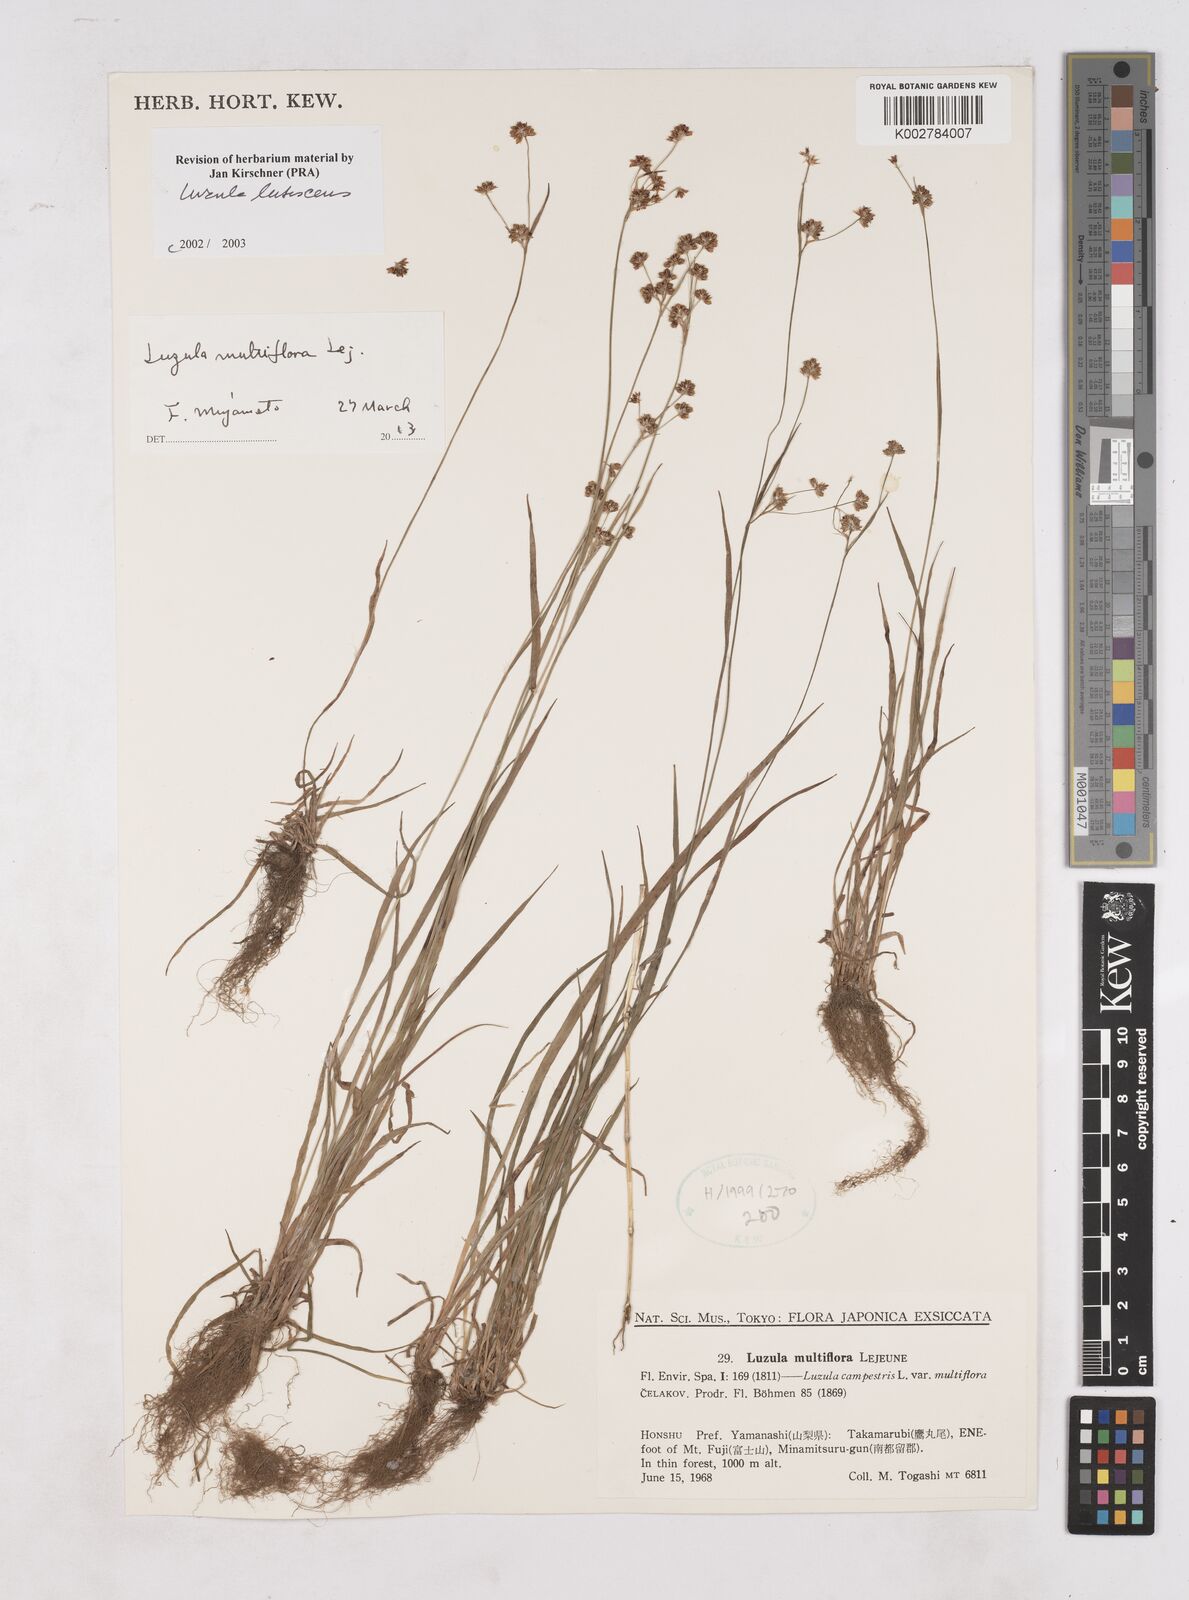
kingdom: Plantae
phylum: Tracheophyta
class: Liliopsida
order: Poales
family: Juncaceae
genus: Luzula
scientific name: Luzula lutescens
